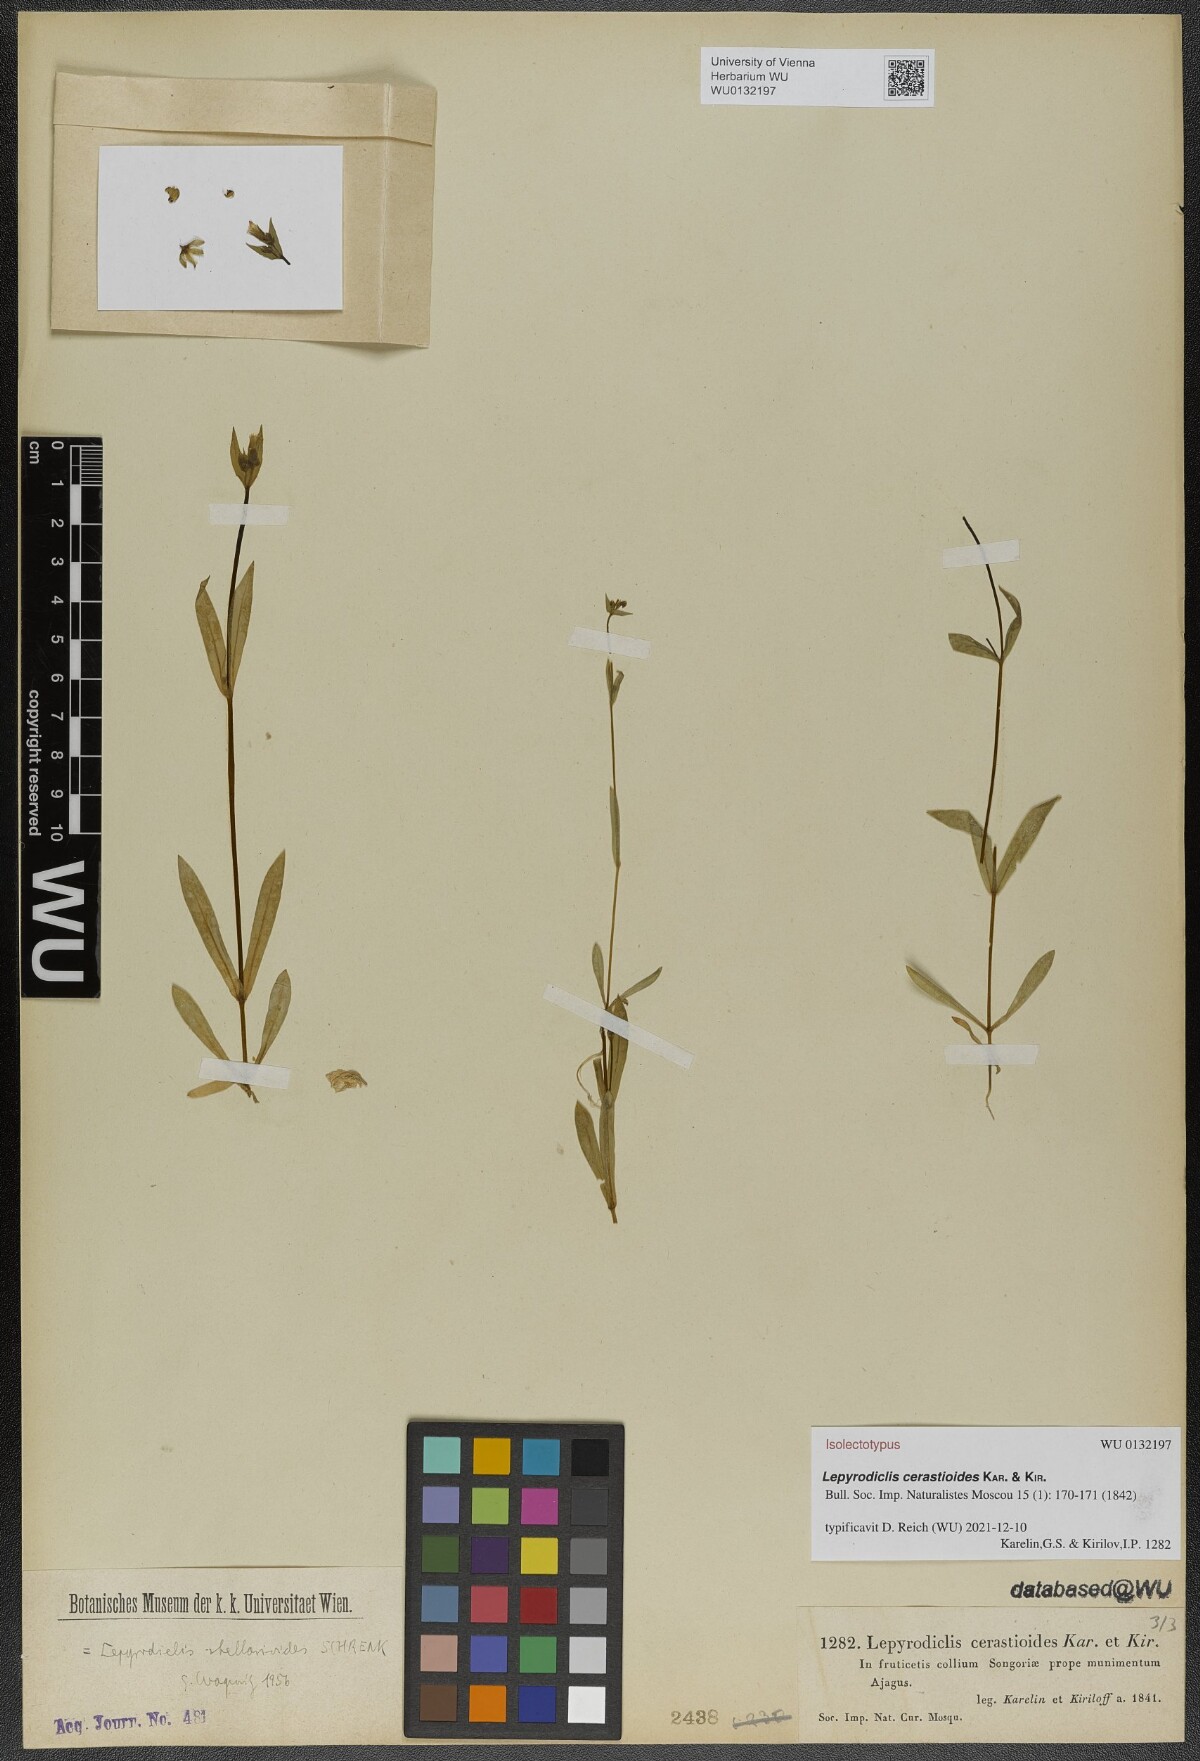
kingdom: Plantae
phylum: Tracheophyta
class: Magnoliopsida
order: Caryophyllales
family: Caryophyllaceae
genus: Lepyrodiclis
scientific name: Lepyrodiclis stellarioides
